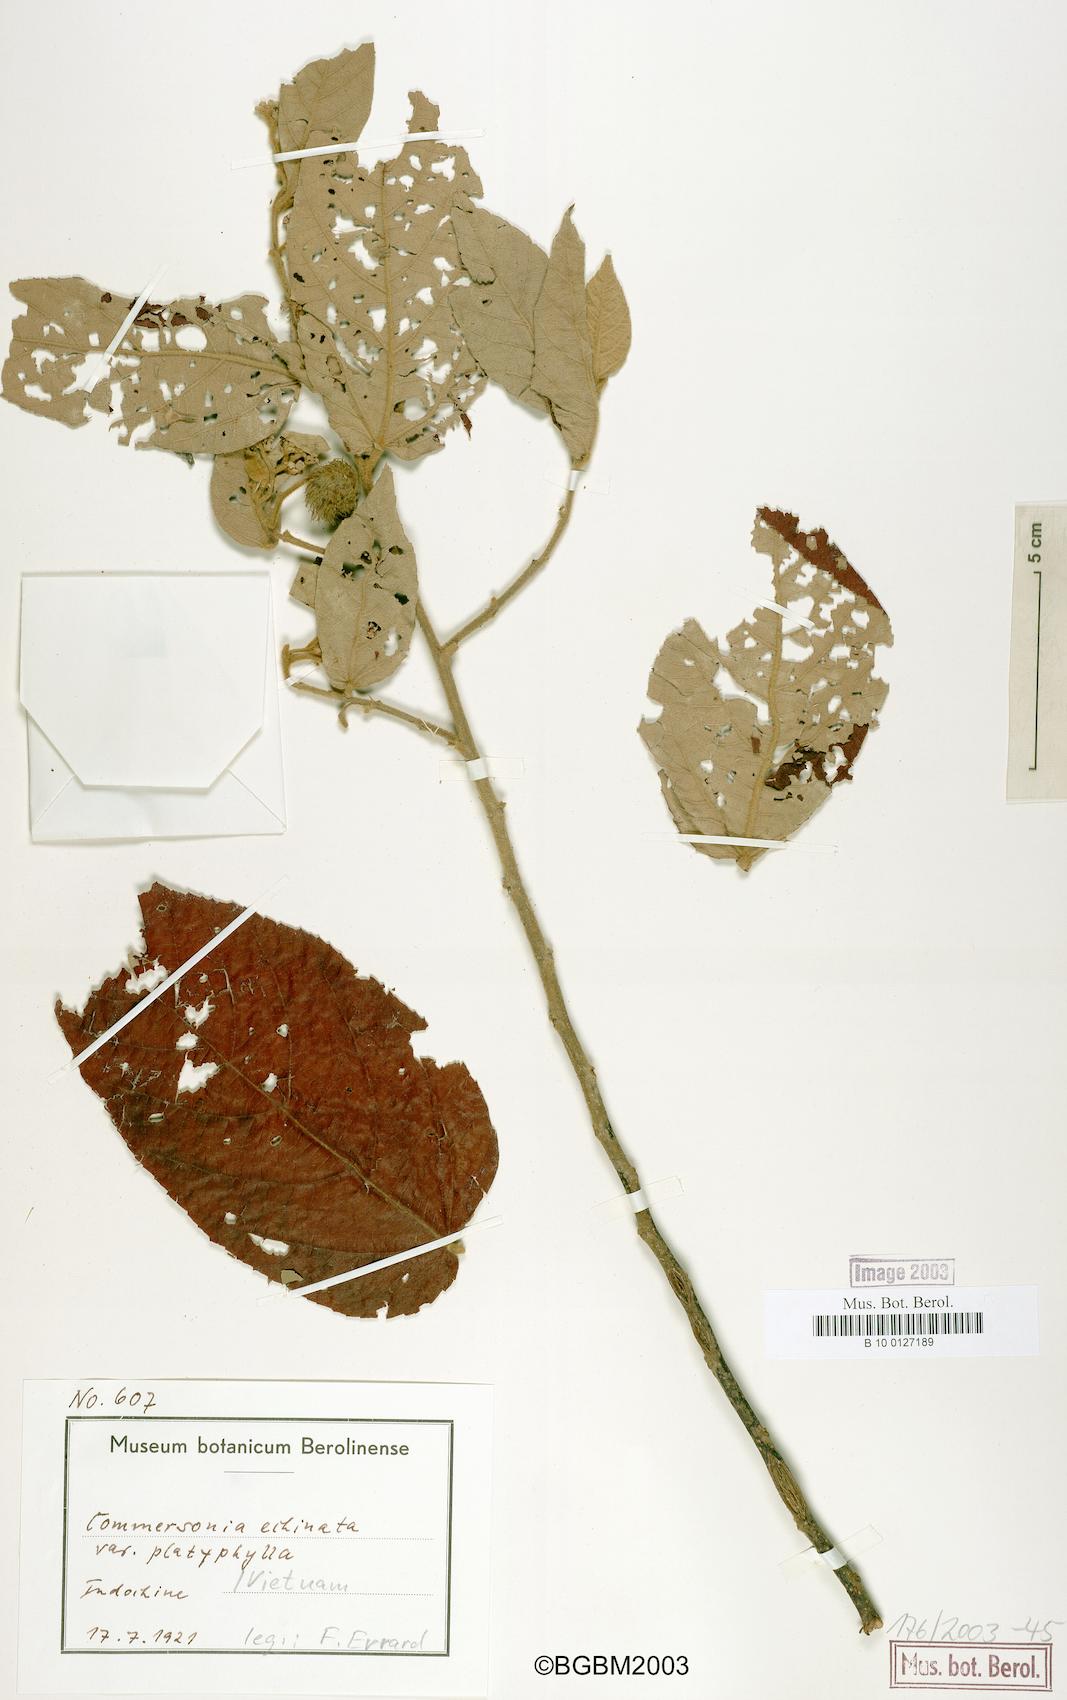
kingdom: Plantae
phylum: Tracheophyta
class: Magnoliopsida
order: Malvales
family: Malvaceae
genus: Commersonia
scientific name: Commersonia bartramia
